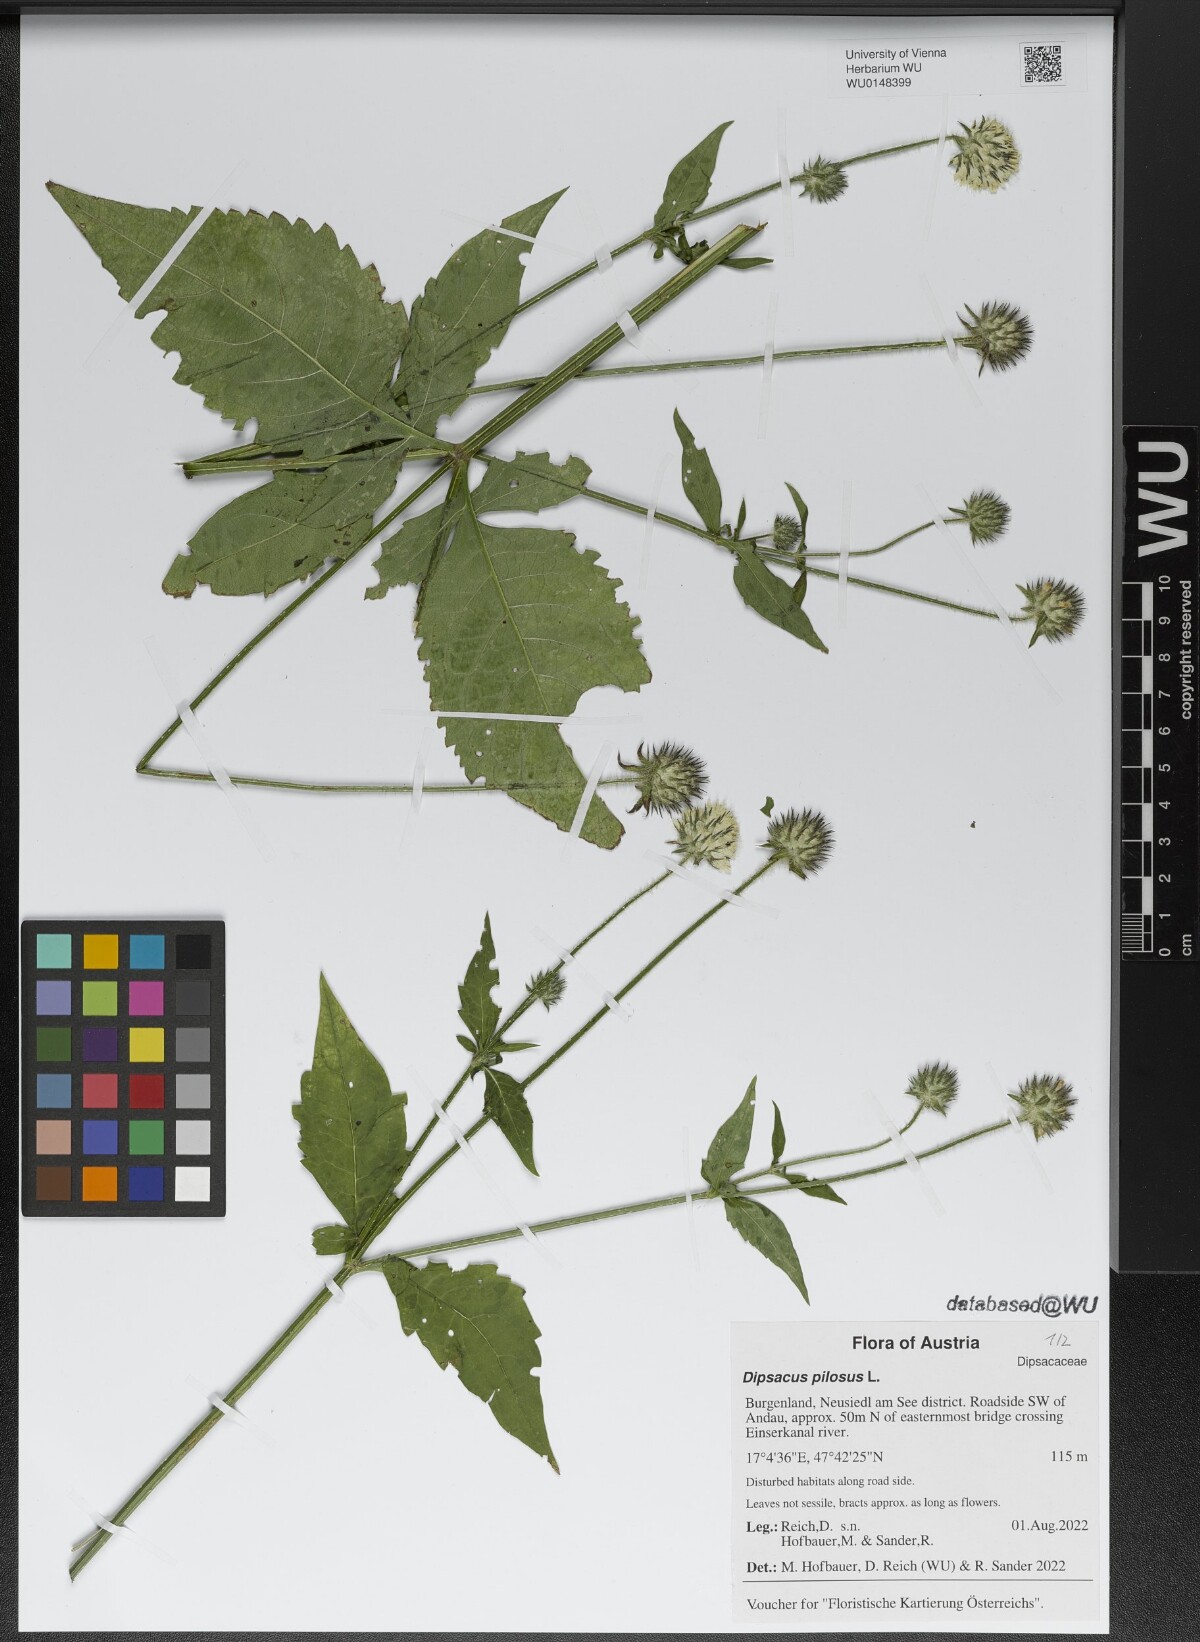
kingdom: Plantae
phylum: Tracheophyta
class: Magnoliopsida
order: Dipsacales
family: Caprifoliaceae
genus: Dipsacus
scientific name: Dipsacus pilosus
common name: Small teasel
